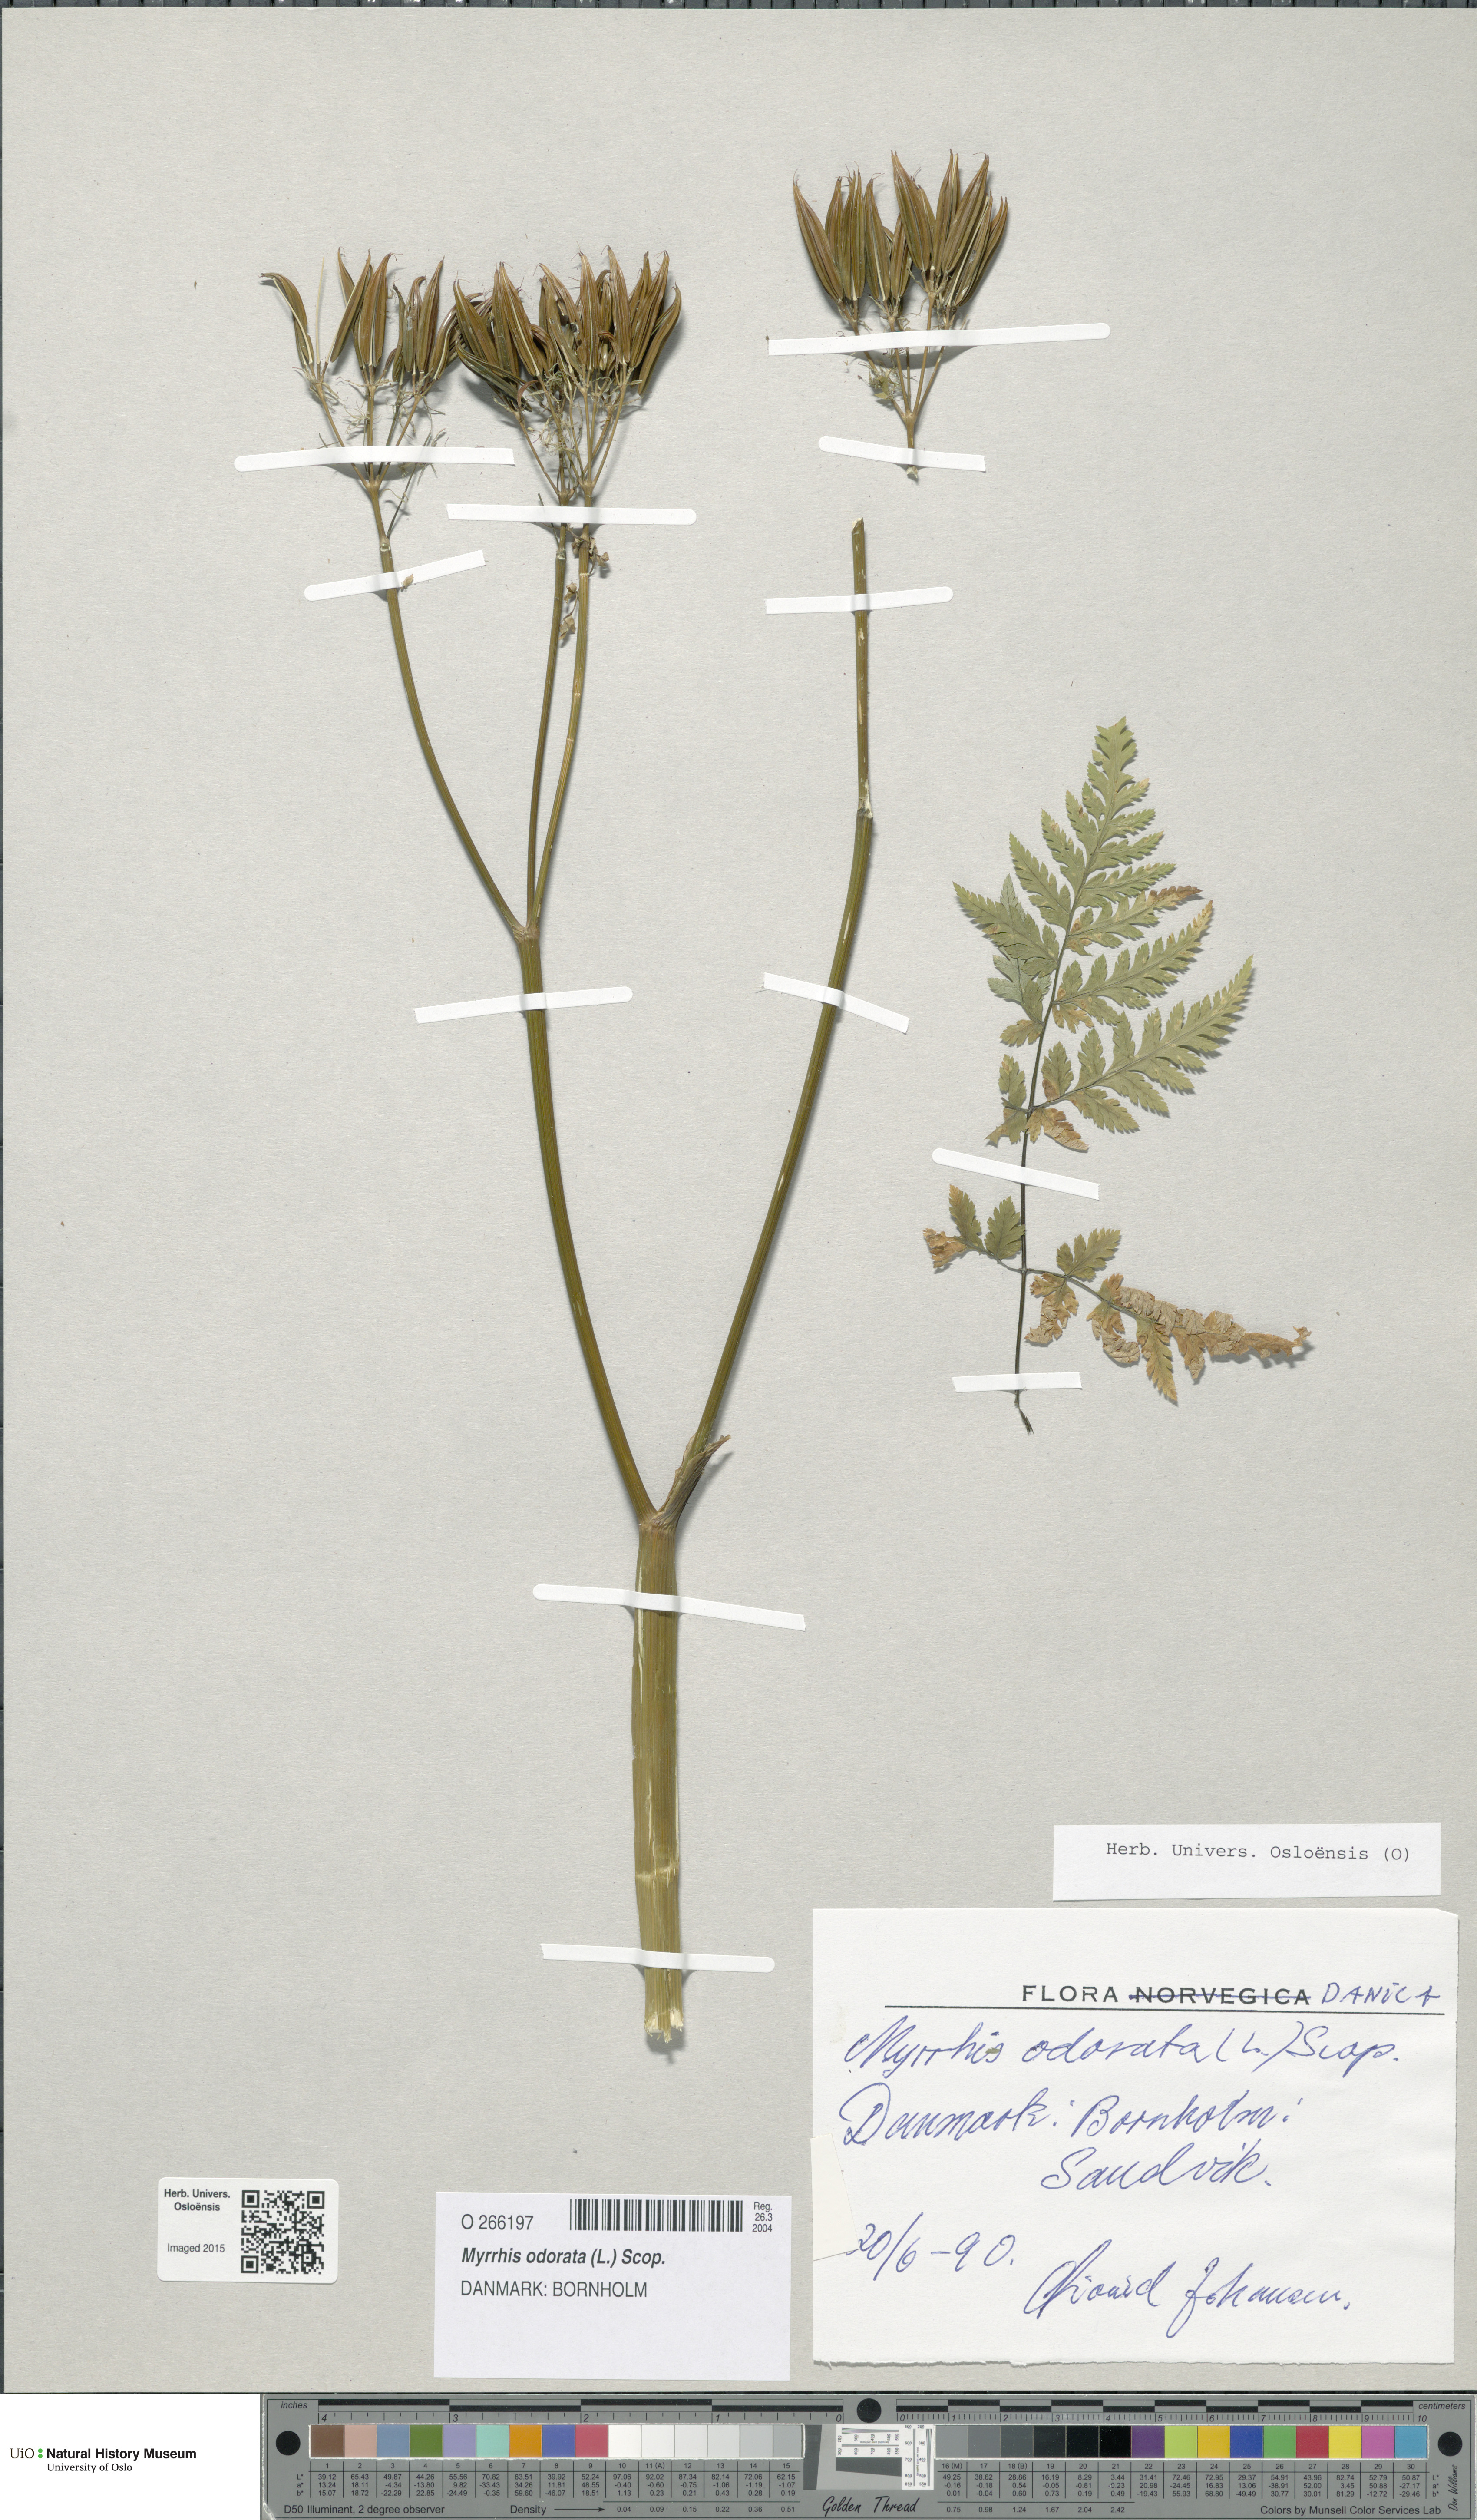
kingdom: Plantae
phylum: Tracheophyta
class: Magnoliopsida
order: Apiales
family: Apiaceae
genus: Myrrhis
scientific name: Myrrhis odorata
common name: Sweet cicely
